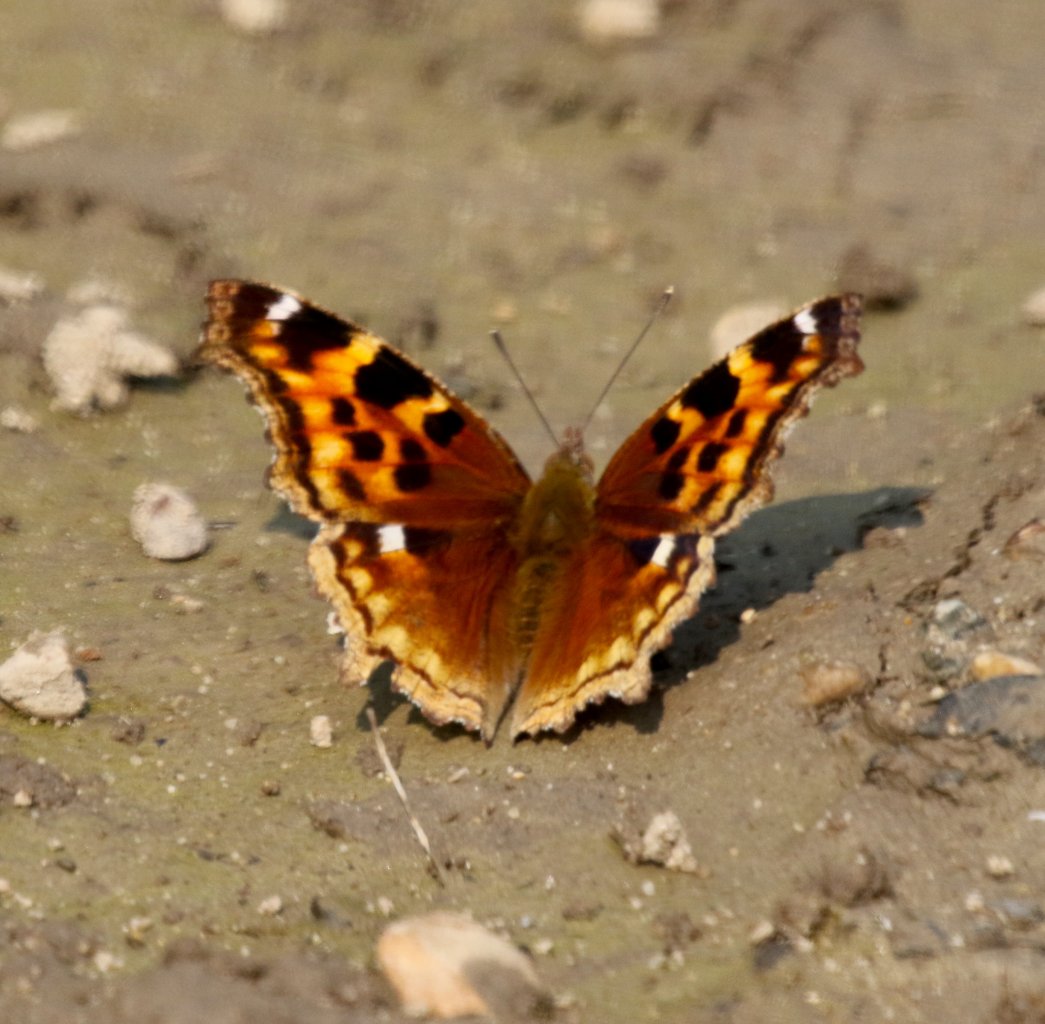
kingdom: Animalia
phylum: Arthropoda
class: Insecta
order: Lepidoptera
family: Nymphalidae
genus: Polygonia
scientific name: Polygonia vaualbum
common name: Compton Tortoiseshell
